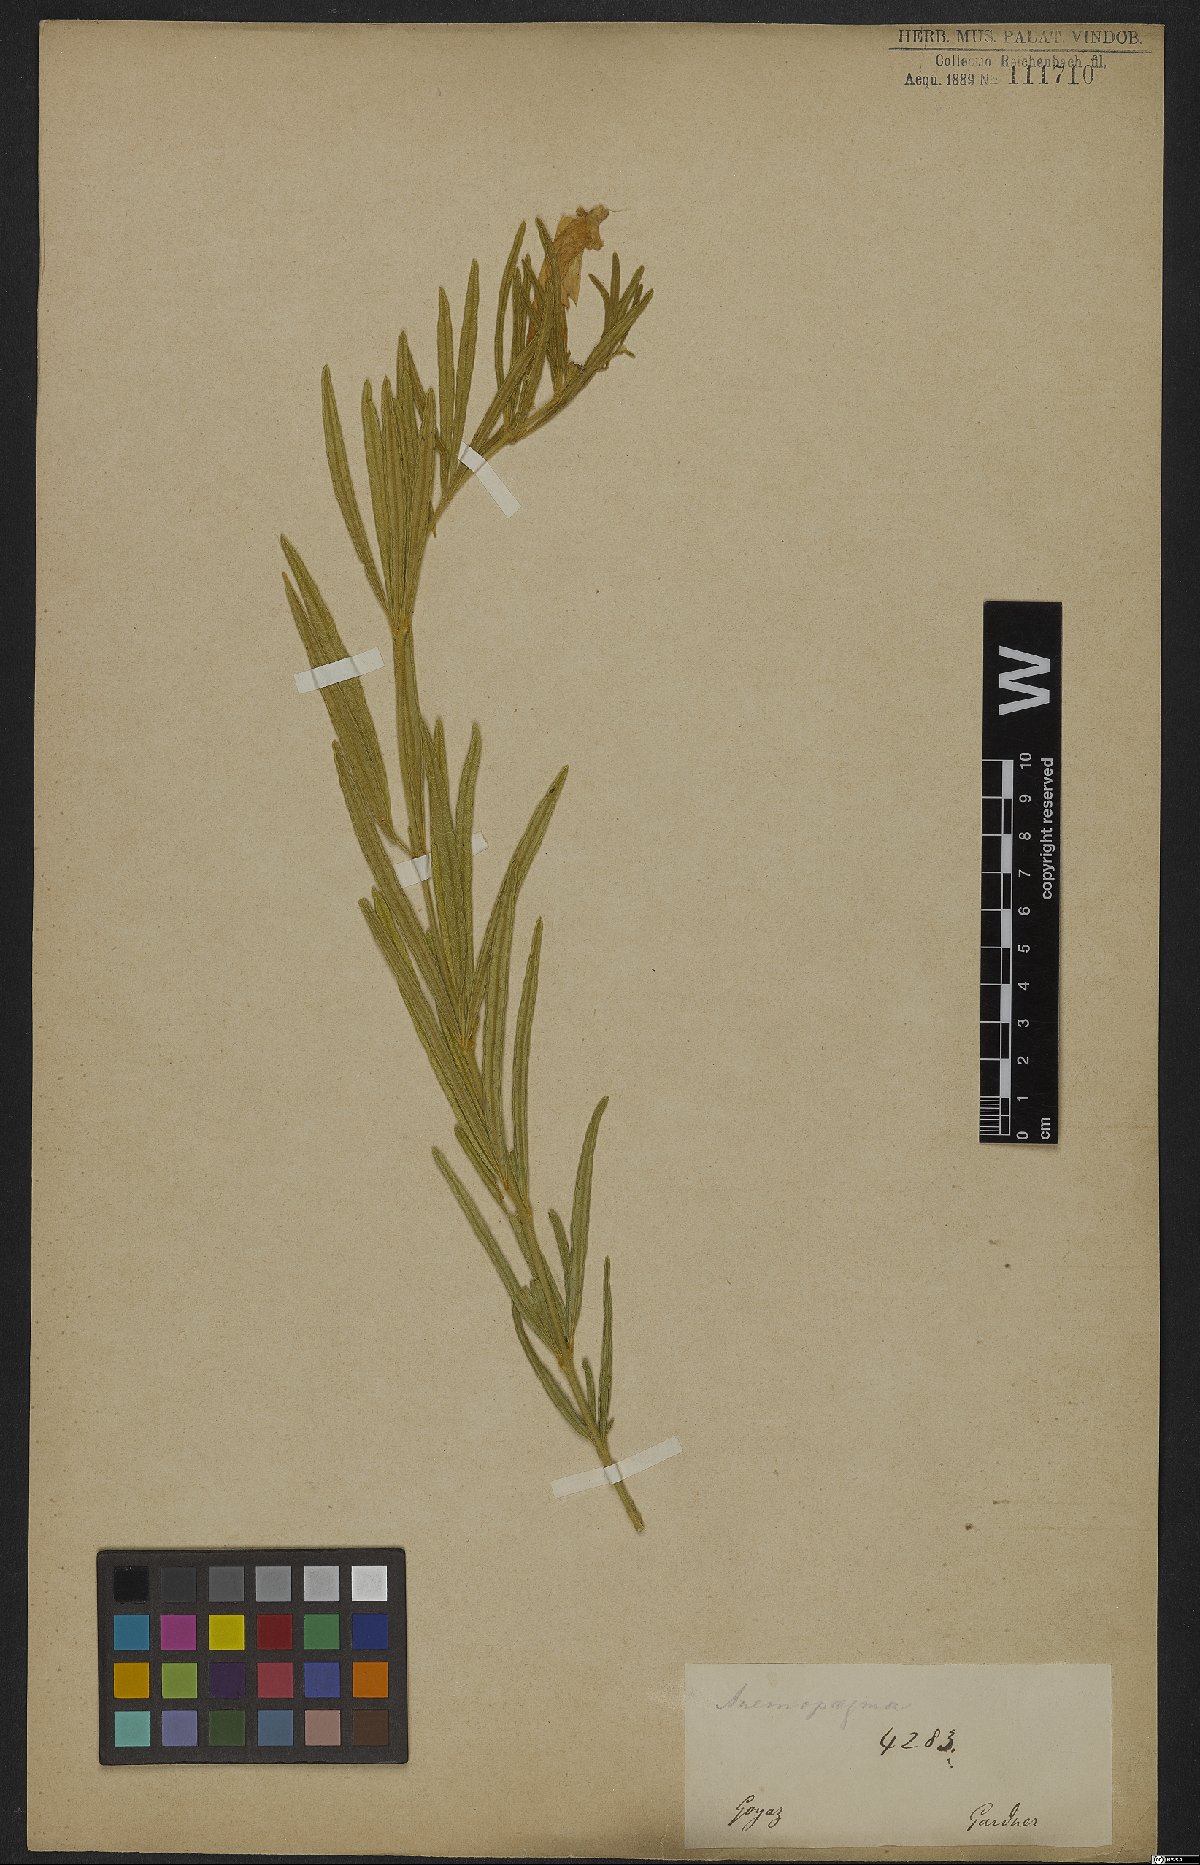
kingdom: Plantae
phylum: Tracheophyta
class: Magnoliopsida
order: Lamiales
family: Bignoniaceae
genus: Anemopaegma
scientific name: Anemopaegma arvense
